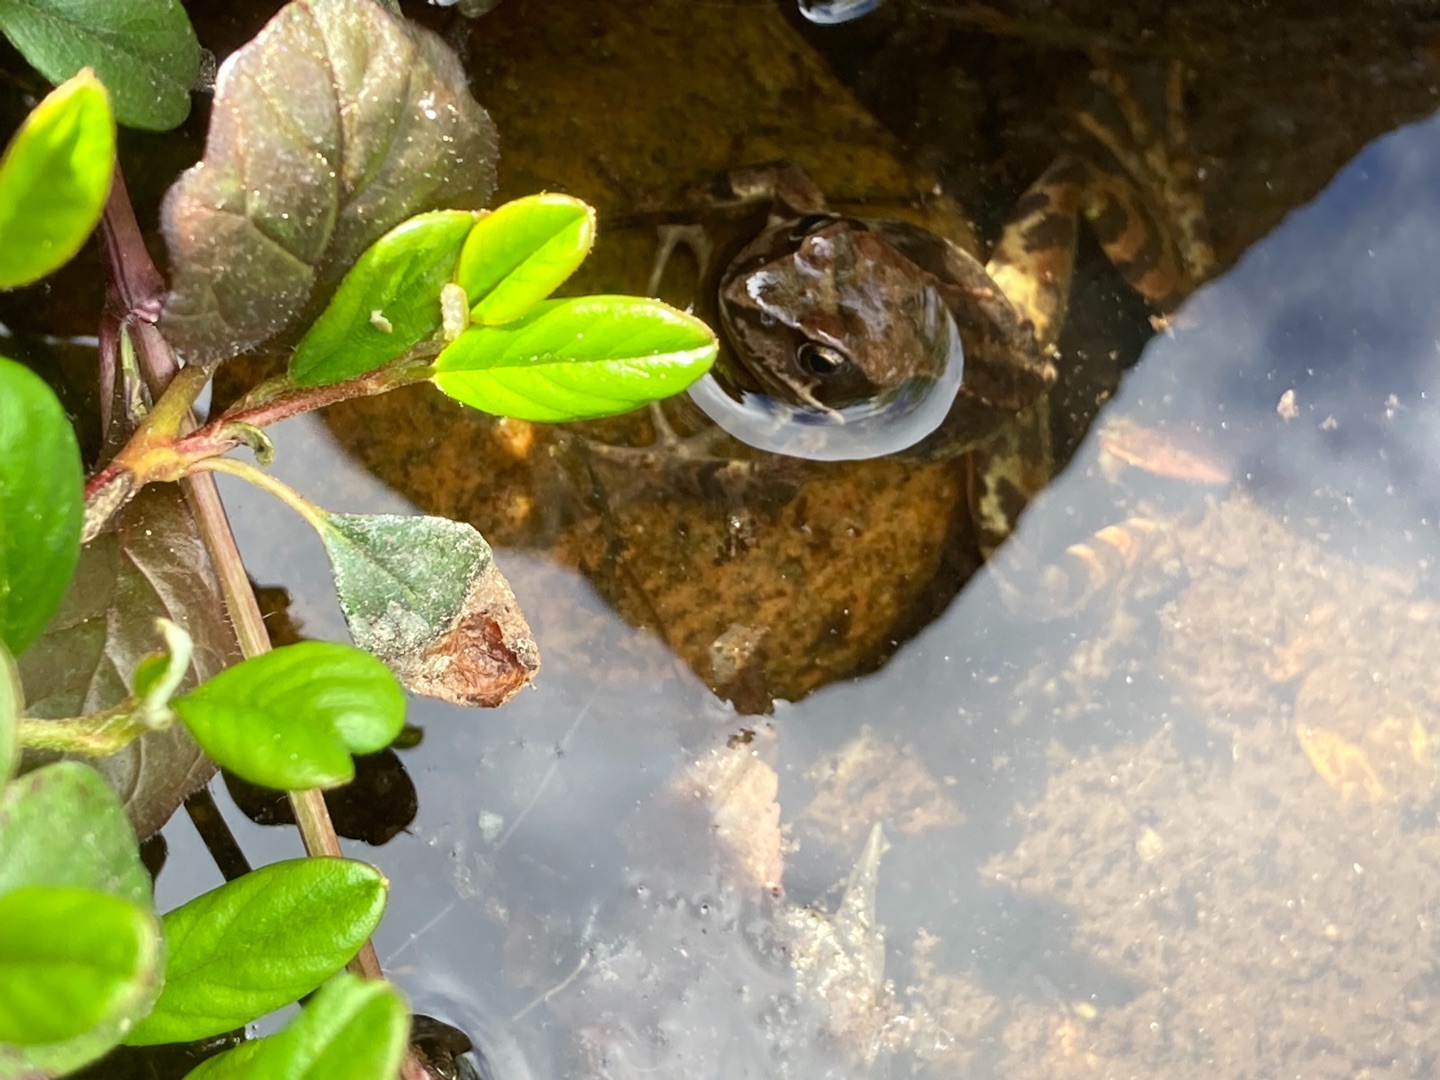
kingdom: Animalia
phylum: Chordata
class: Amphibia
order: Anura
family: Ranidae
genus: Rana
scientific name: Rana temporaria
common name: Butsnudet frø
